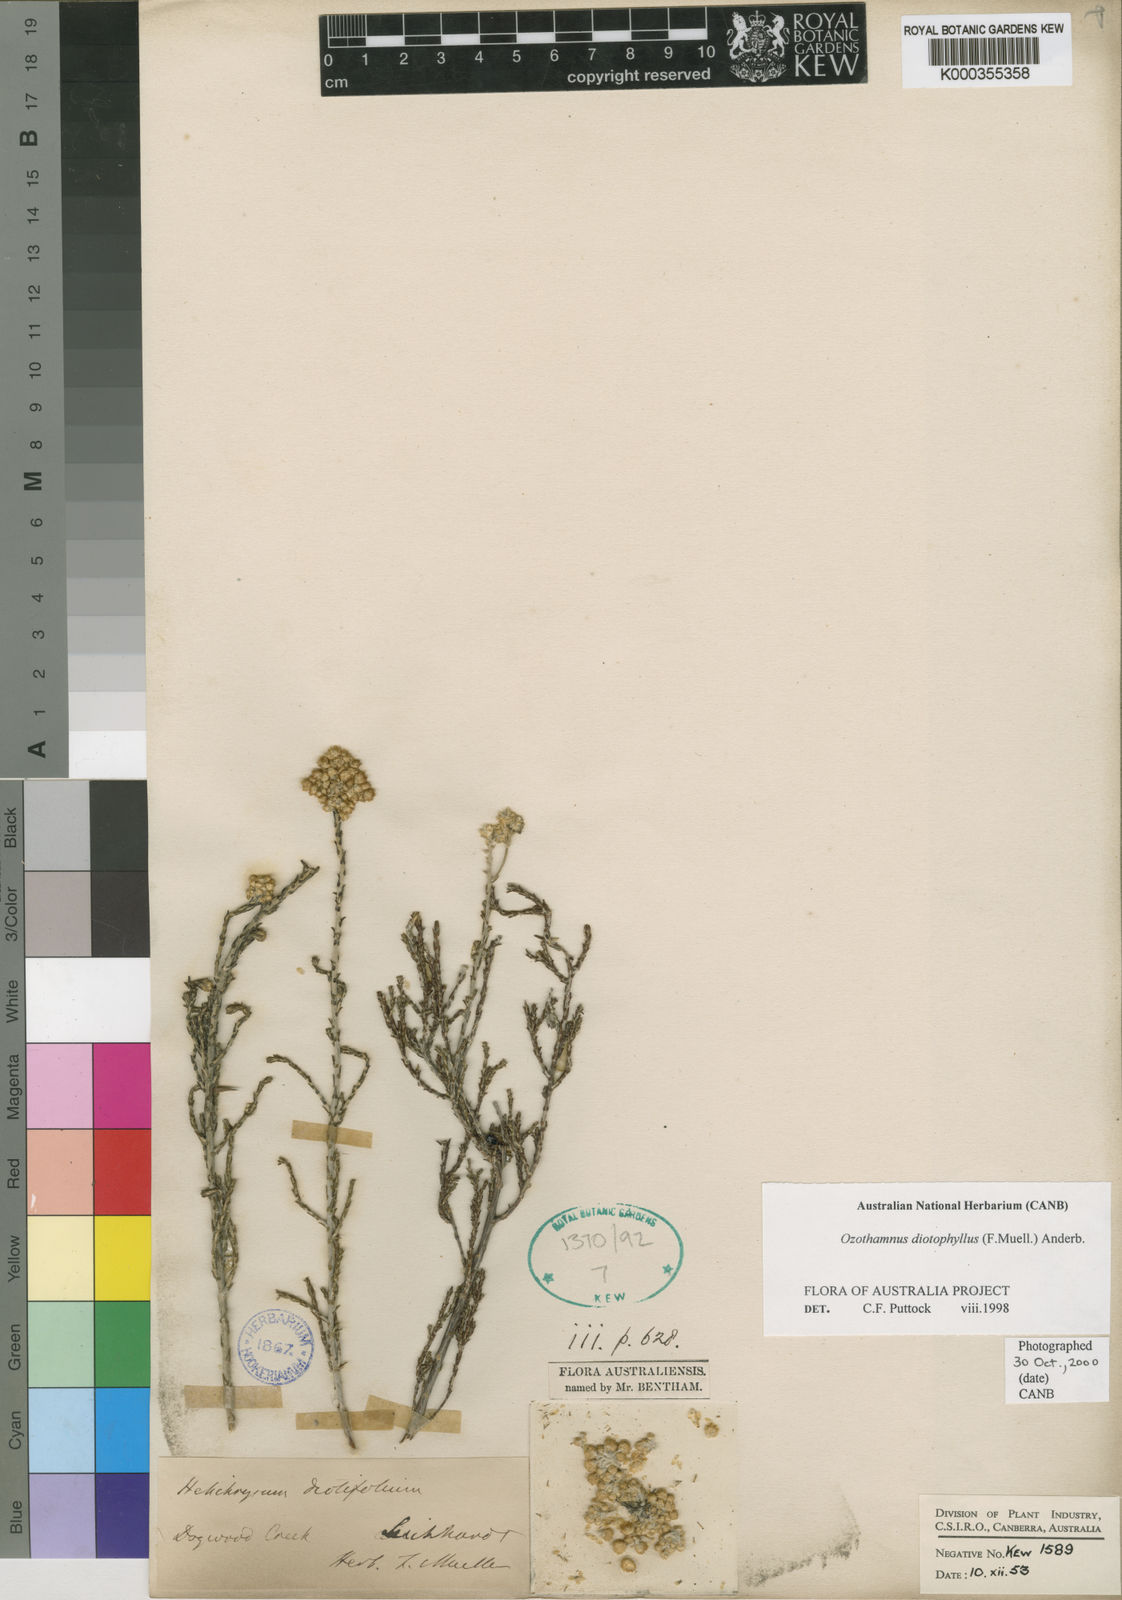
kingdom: Plantae
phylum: Tracheophyta
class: Magnoliopsida
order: Asterales
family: Asteraceae
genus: Ozothamnus
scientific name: Ozothamnus diotophyllus
